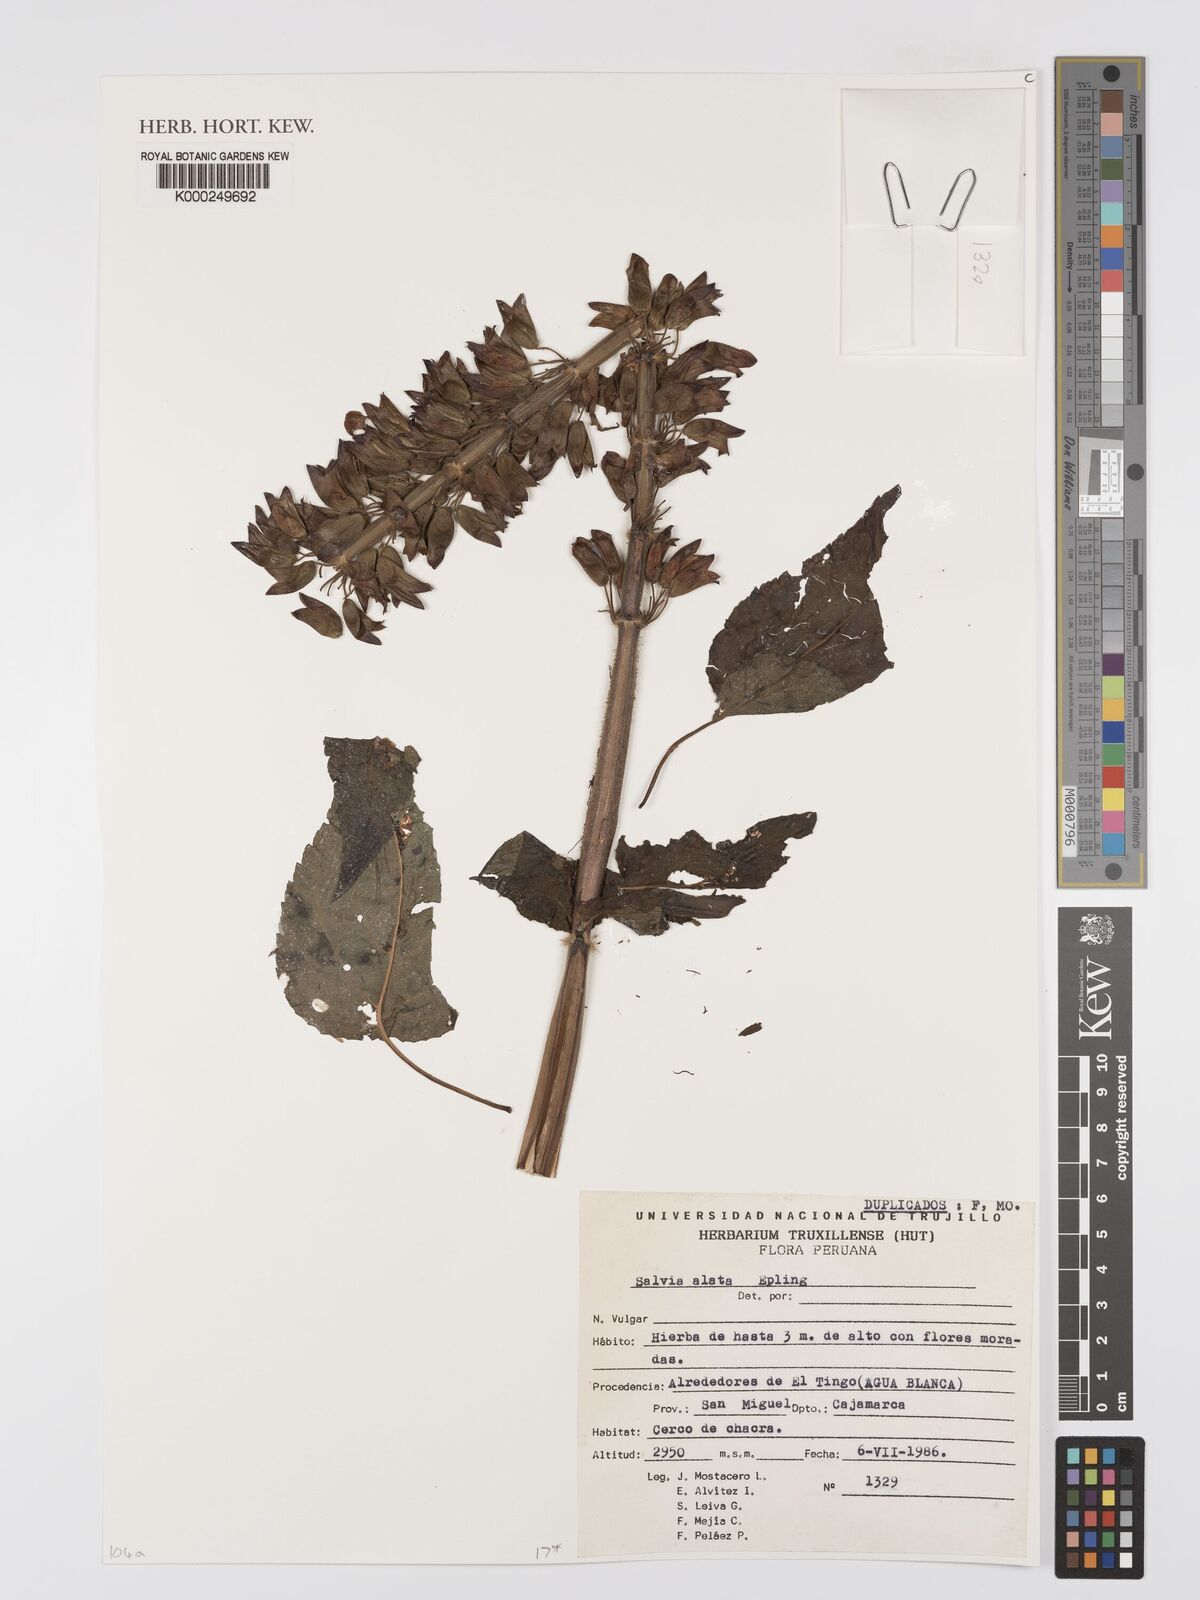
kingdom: Plantae
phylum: Tracheophyta
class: Magnoliopsida
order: Lamiales
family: Lamiaceae
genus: Salvia
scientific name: Salvia alata
